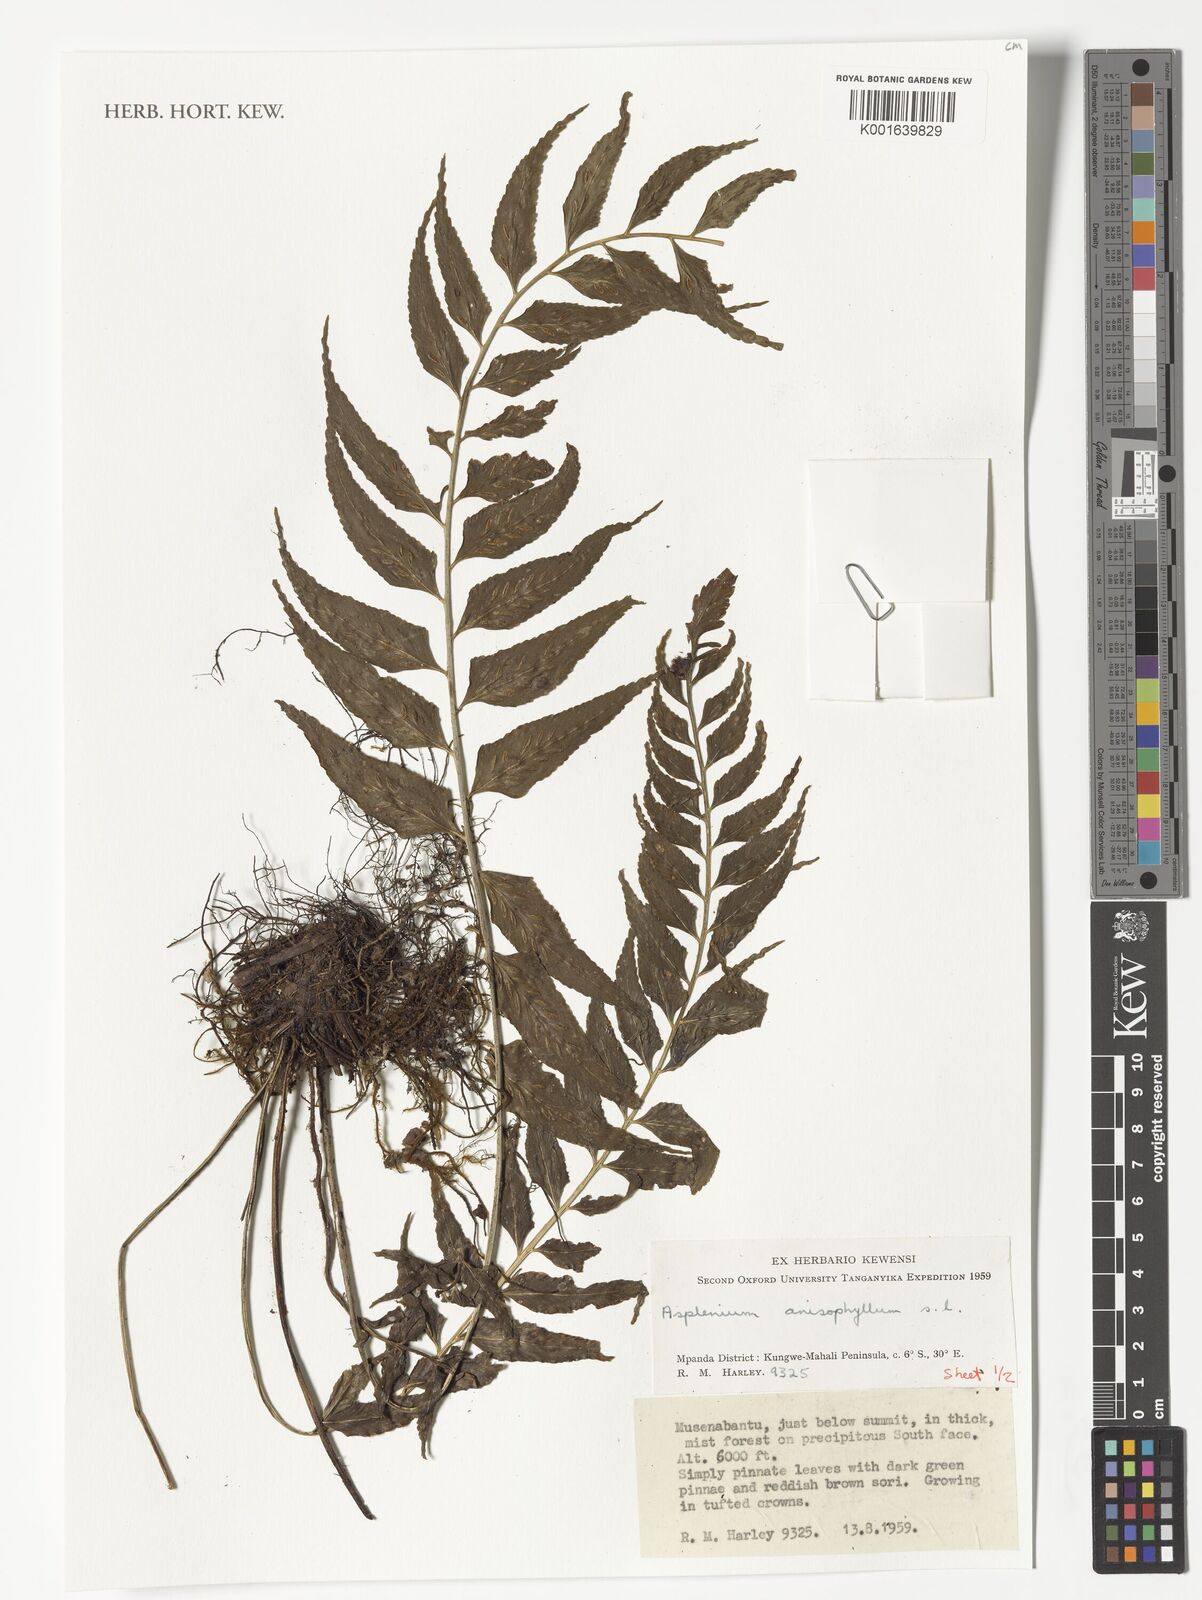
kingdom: Plantae
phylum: Tracheophyta
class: Polypodiopsida
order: Polypodiales
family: Aspleniaceae
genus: Asplenium
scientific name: Asplenium anisophyllum
